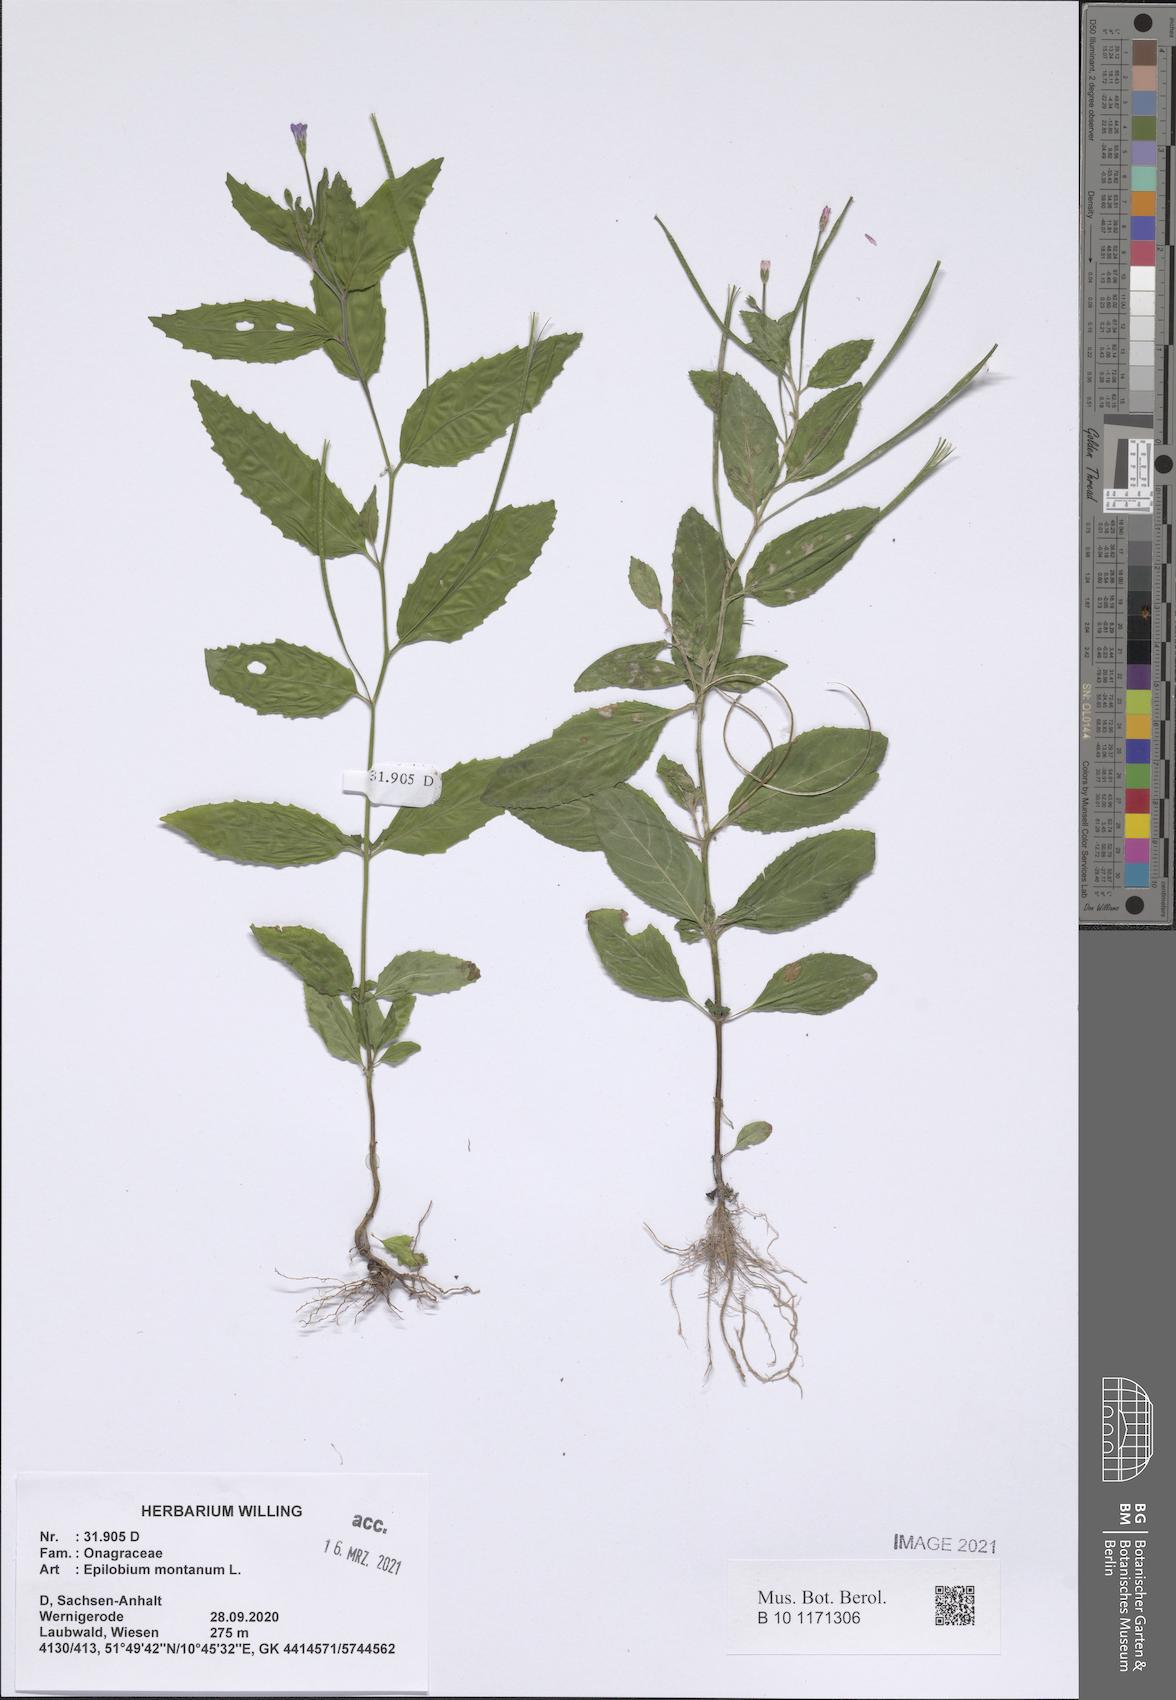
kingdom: Plantae
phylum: Tracheophyta
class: Magnoliopsida
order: Myrtales
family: Onagraceae
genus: Epilobium
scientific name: Epilobium montanum
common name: Broad-leaved willowherb
